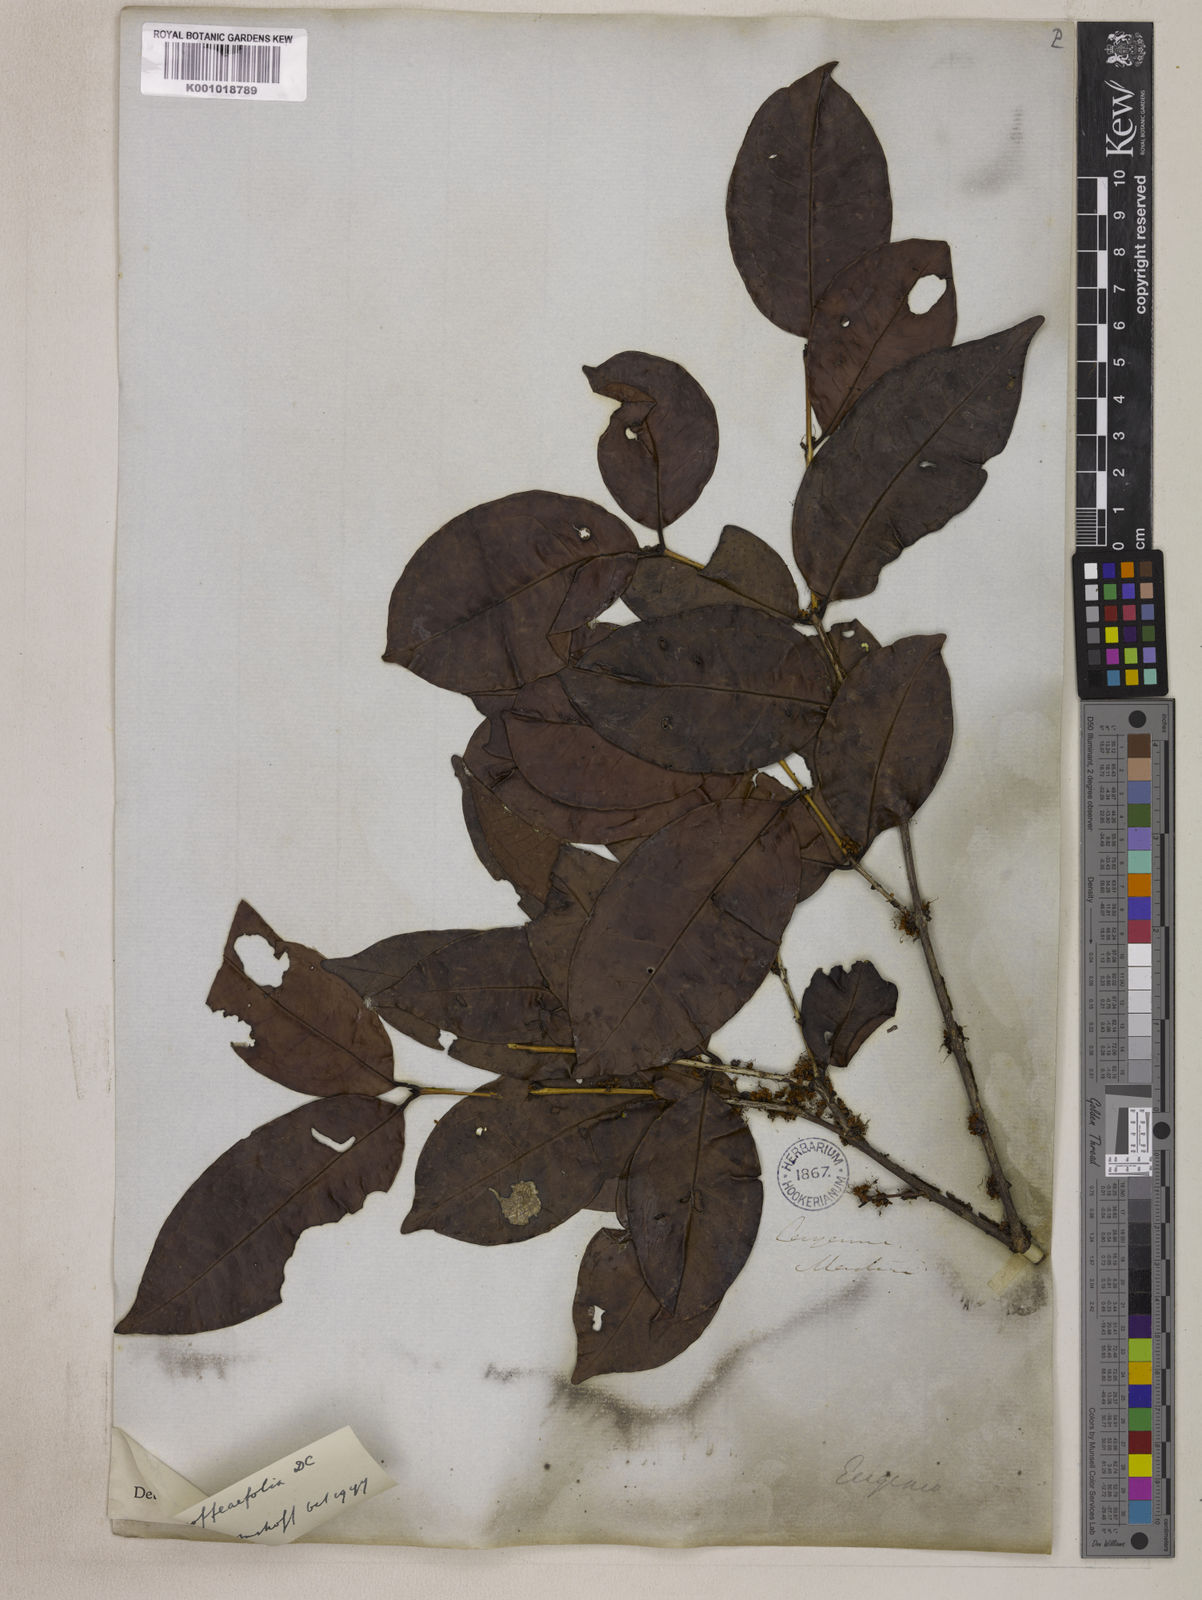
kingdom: Plantae
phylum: Tracheophyta
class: Magnoliopsida
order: Myrtales
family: Myrtaceae
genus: Eugenia
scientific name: Eugenia coffeifolia
